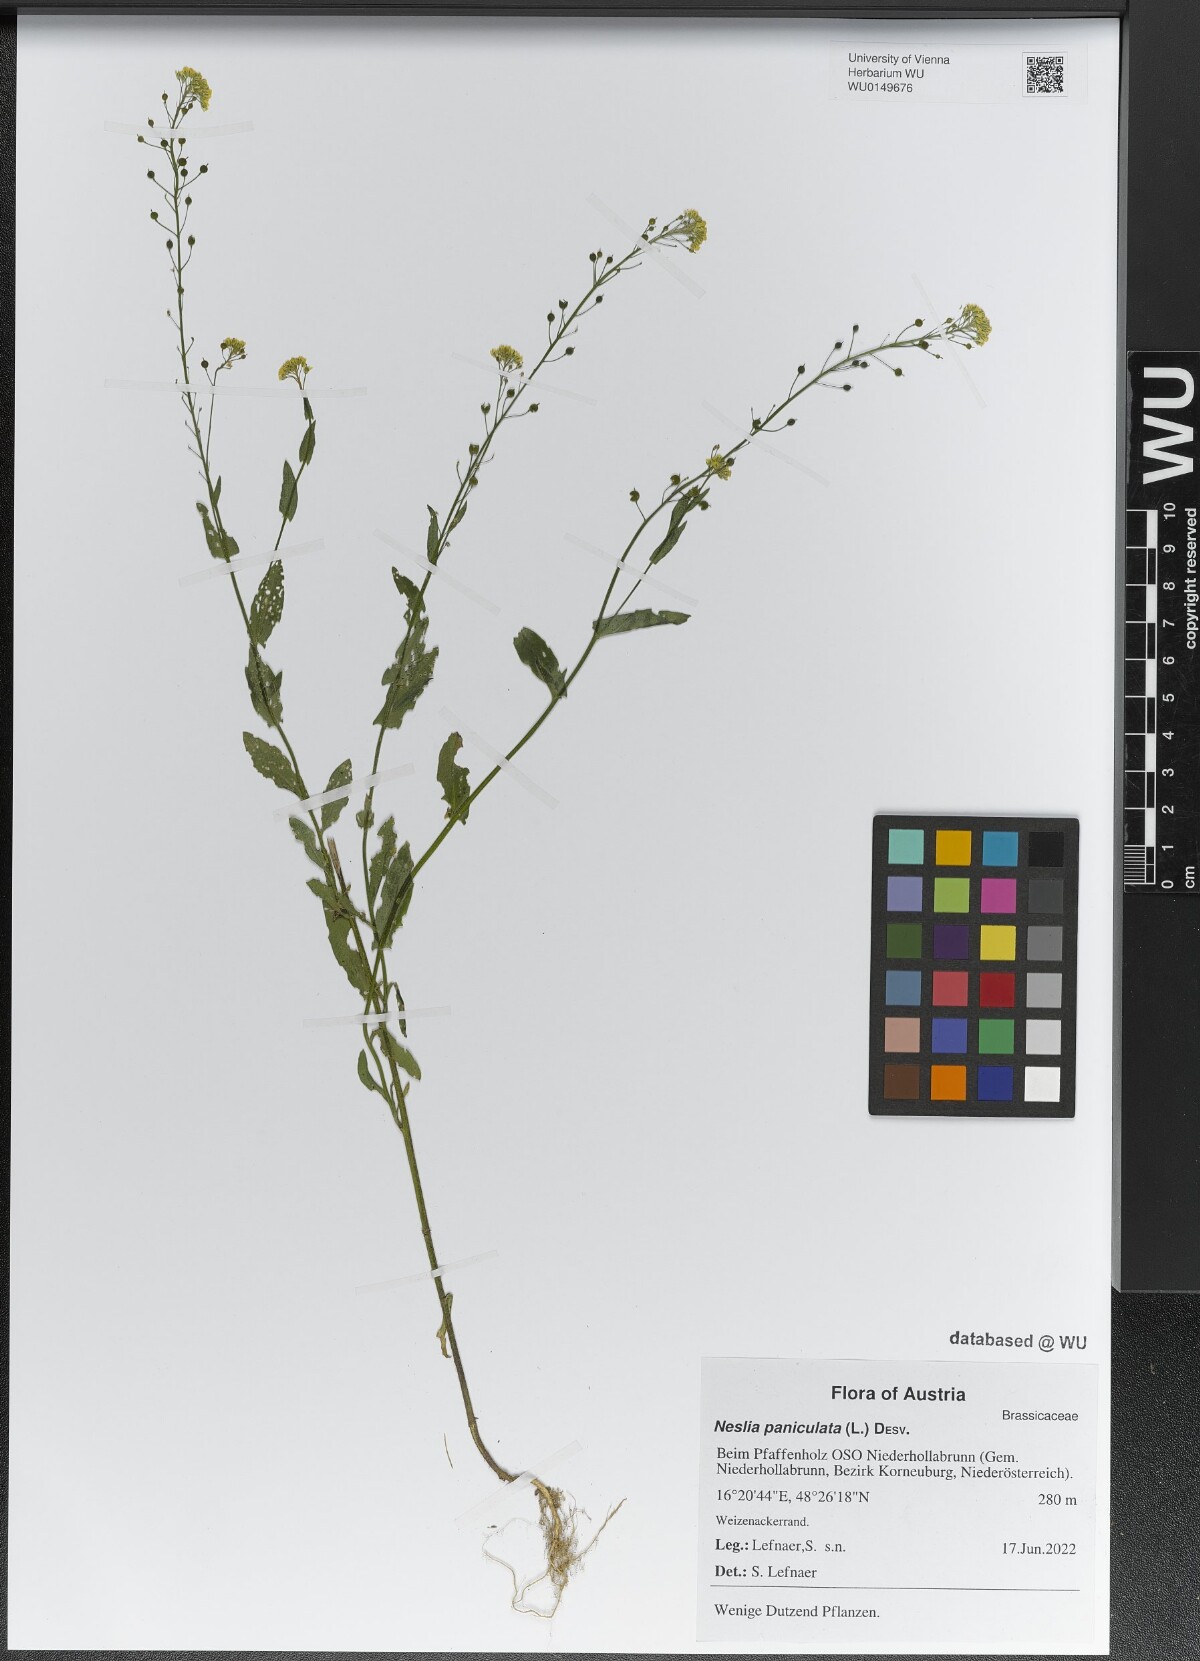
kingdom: Plantae
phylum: Tracheophyta
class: Magnoliopsida
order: Brassicales
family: Brassicaceae
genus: Neslia
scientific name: Neslia paniculata
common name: Ball mustard
